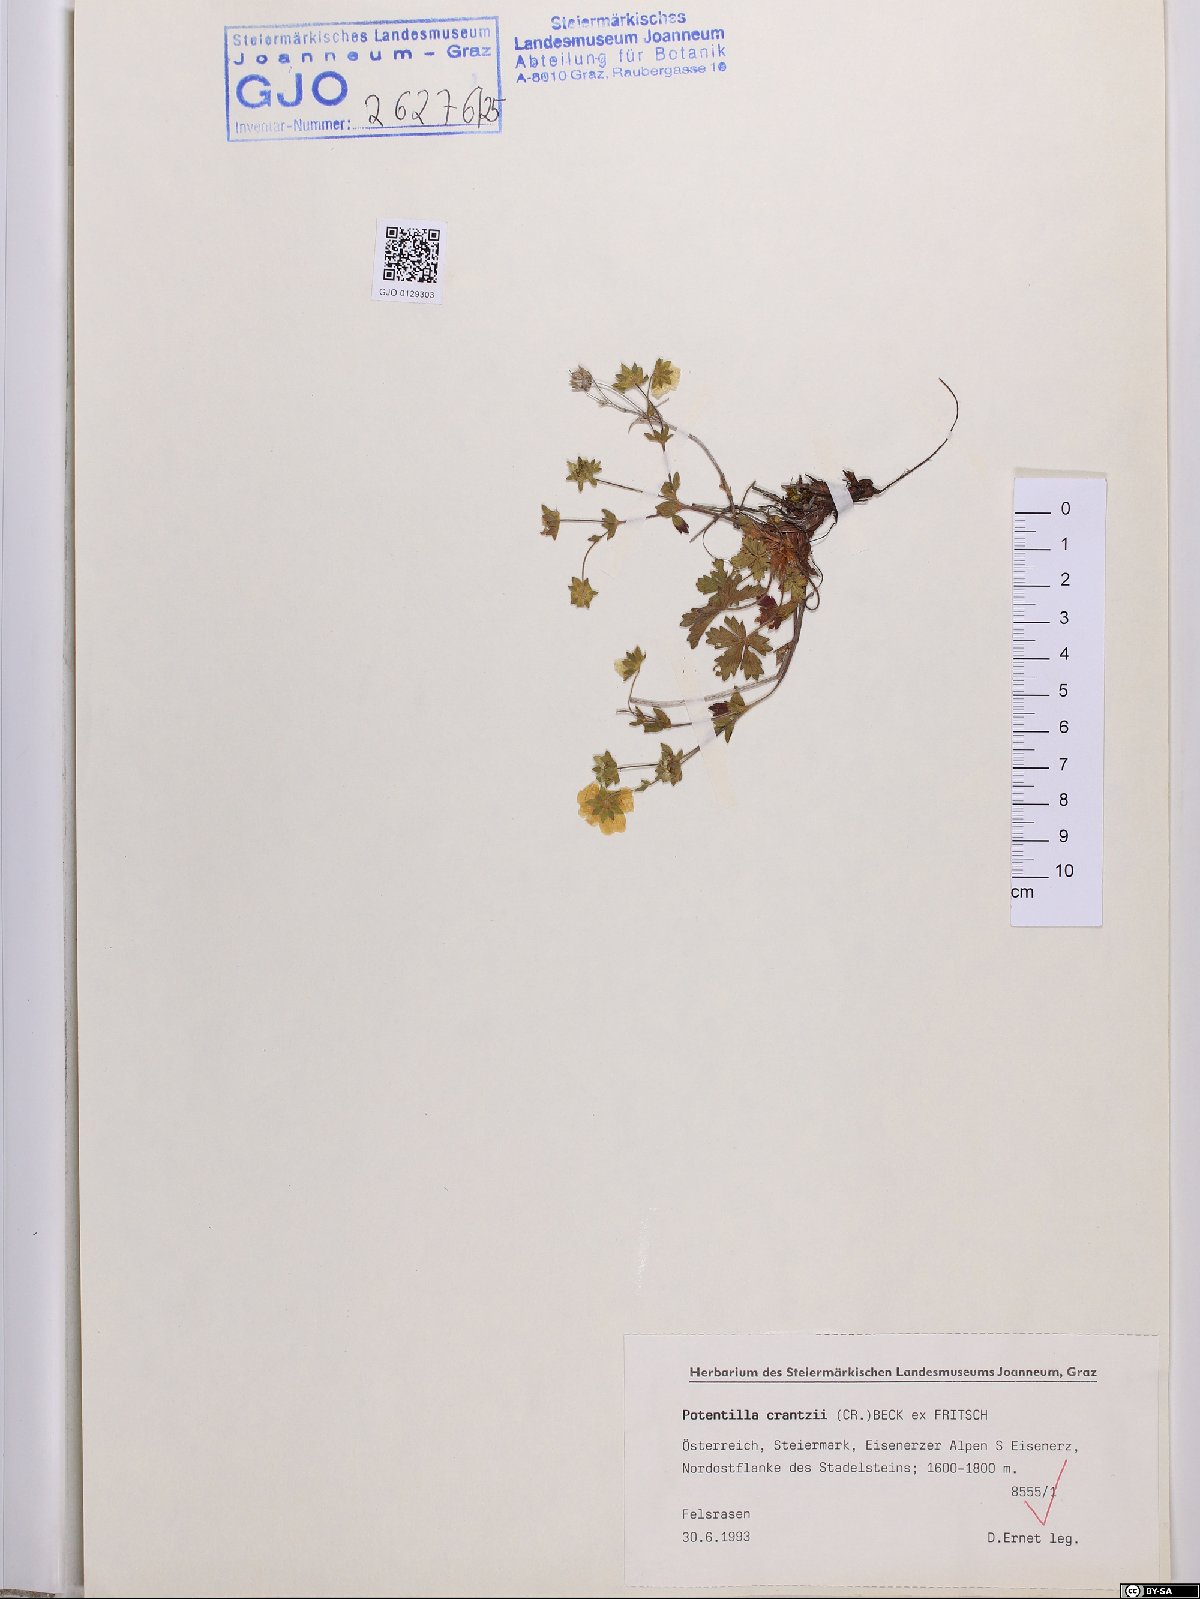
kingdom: Plantae
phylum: Tracheophyta
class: Magnoliopsida
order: Rosales
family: Rosaceae
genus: Potentilla
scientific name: Potentilla crantzii
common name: Alpine cinquefoil
